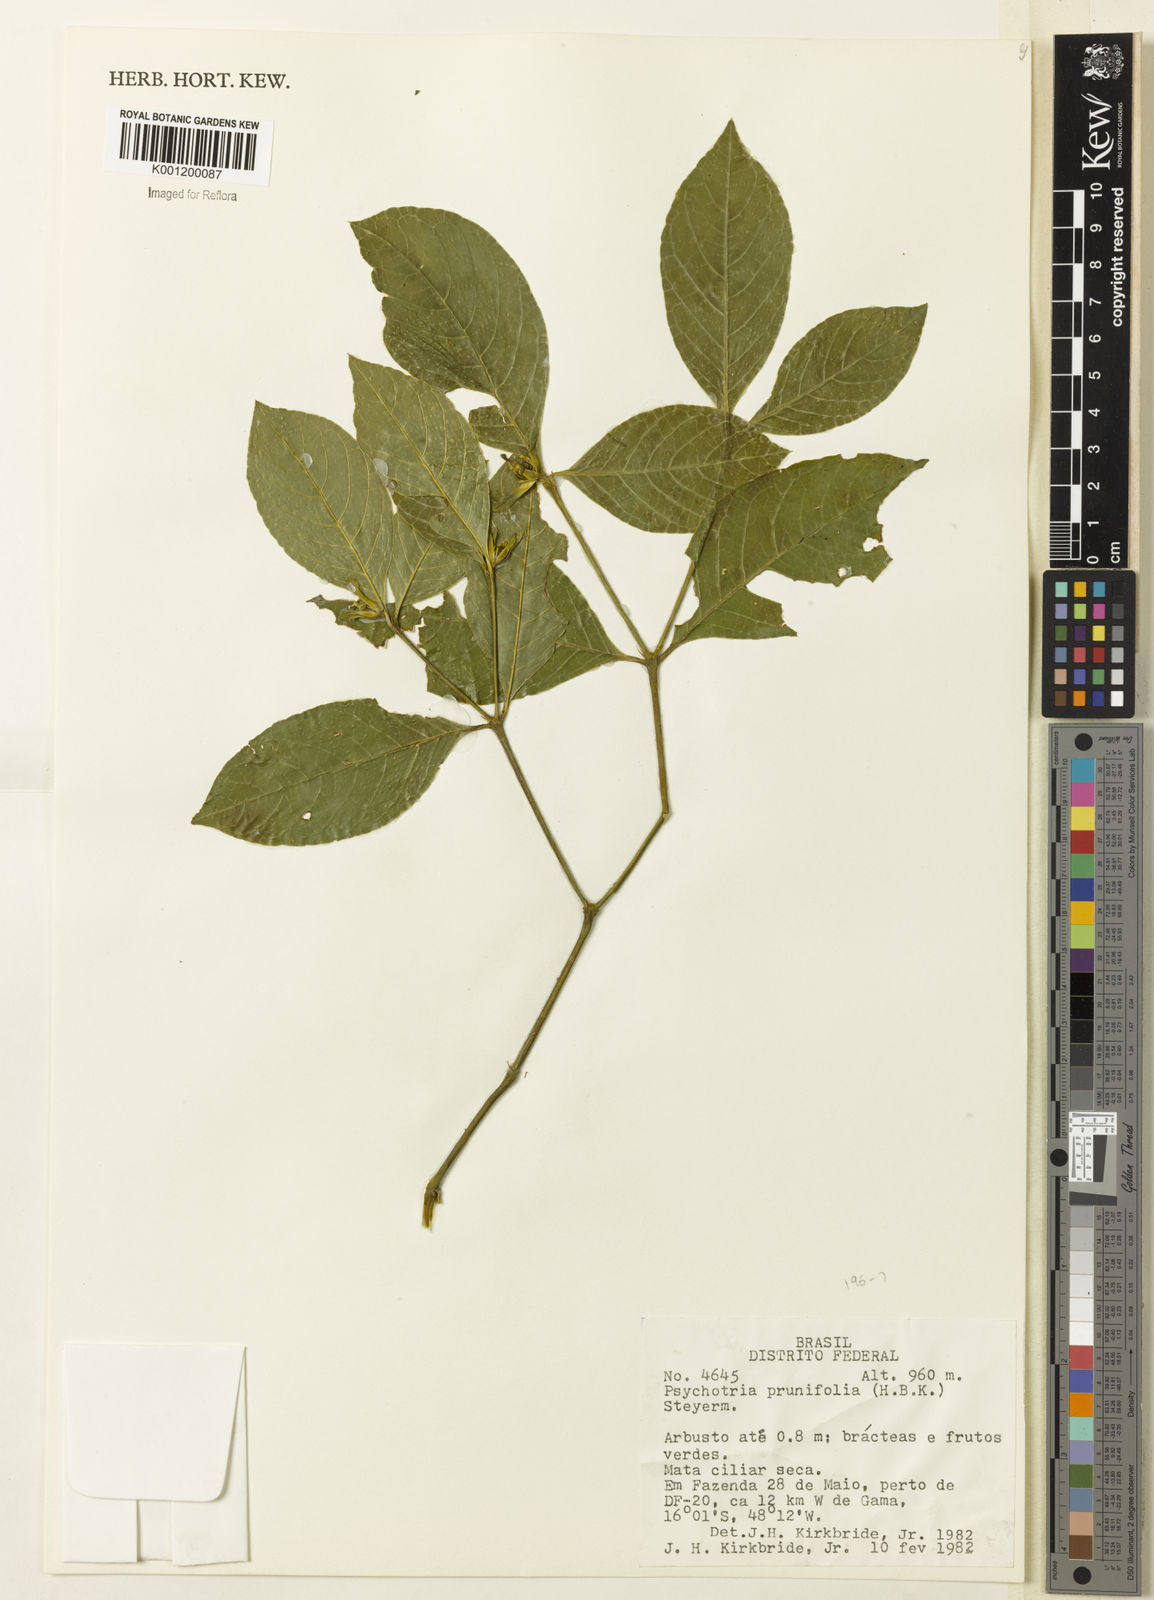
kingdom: Plantae
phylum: Tracheophyta
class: Magnoliopsida
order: Gentianales
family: Rubiaceae
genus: Palicourea
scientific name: Palicourea prunifolia
